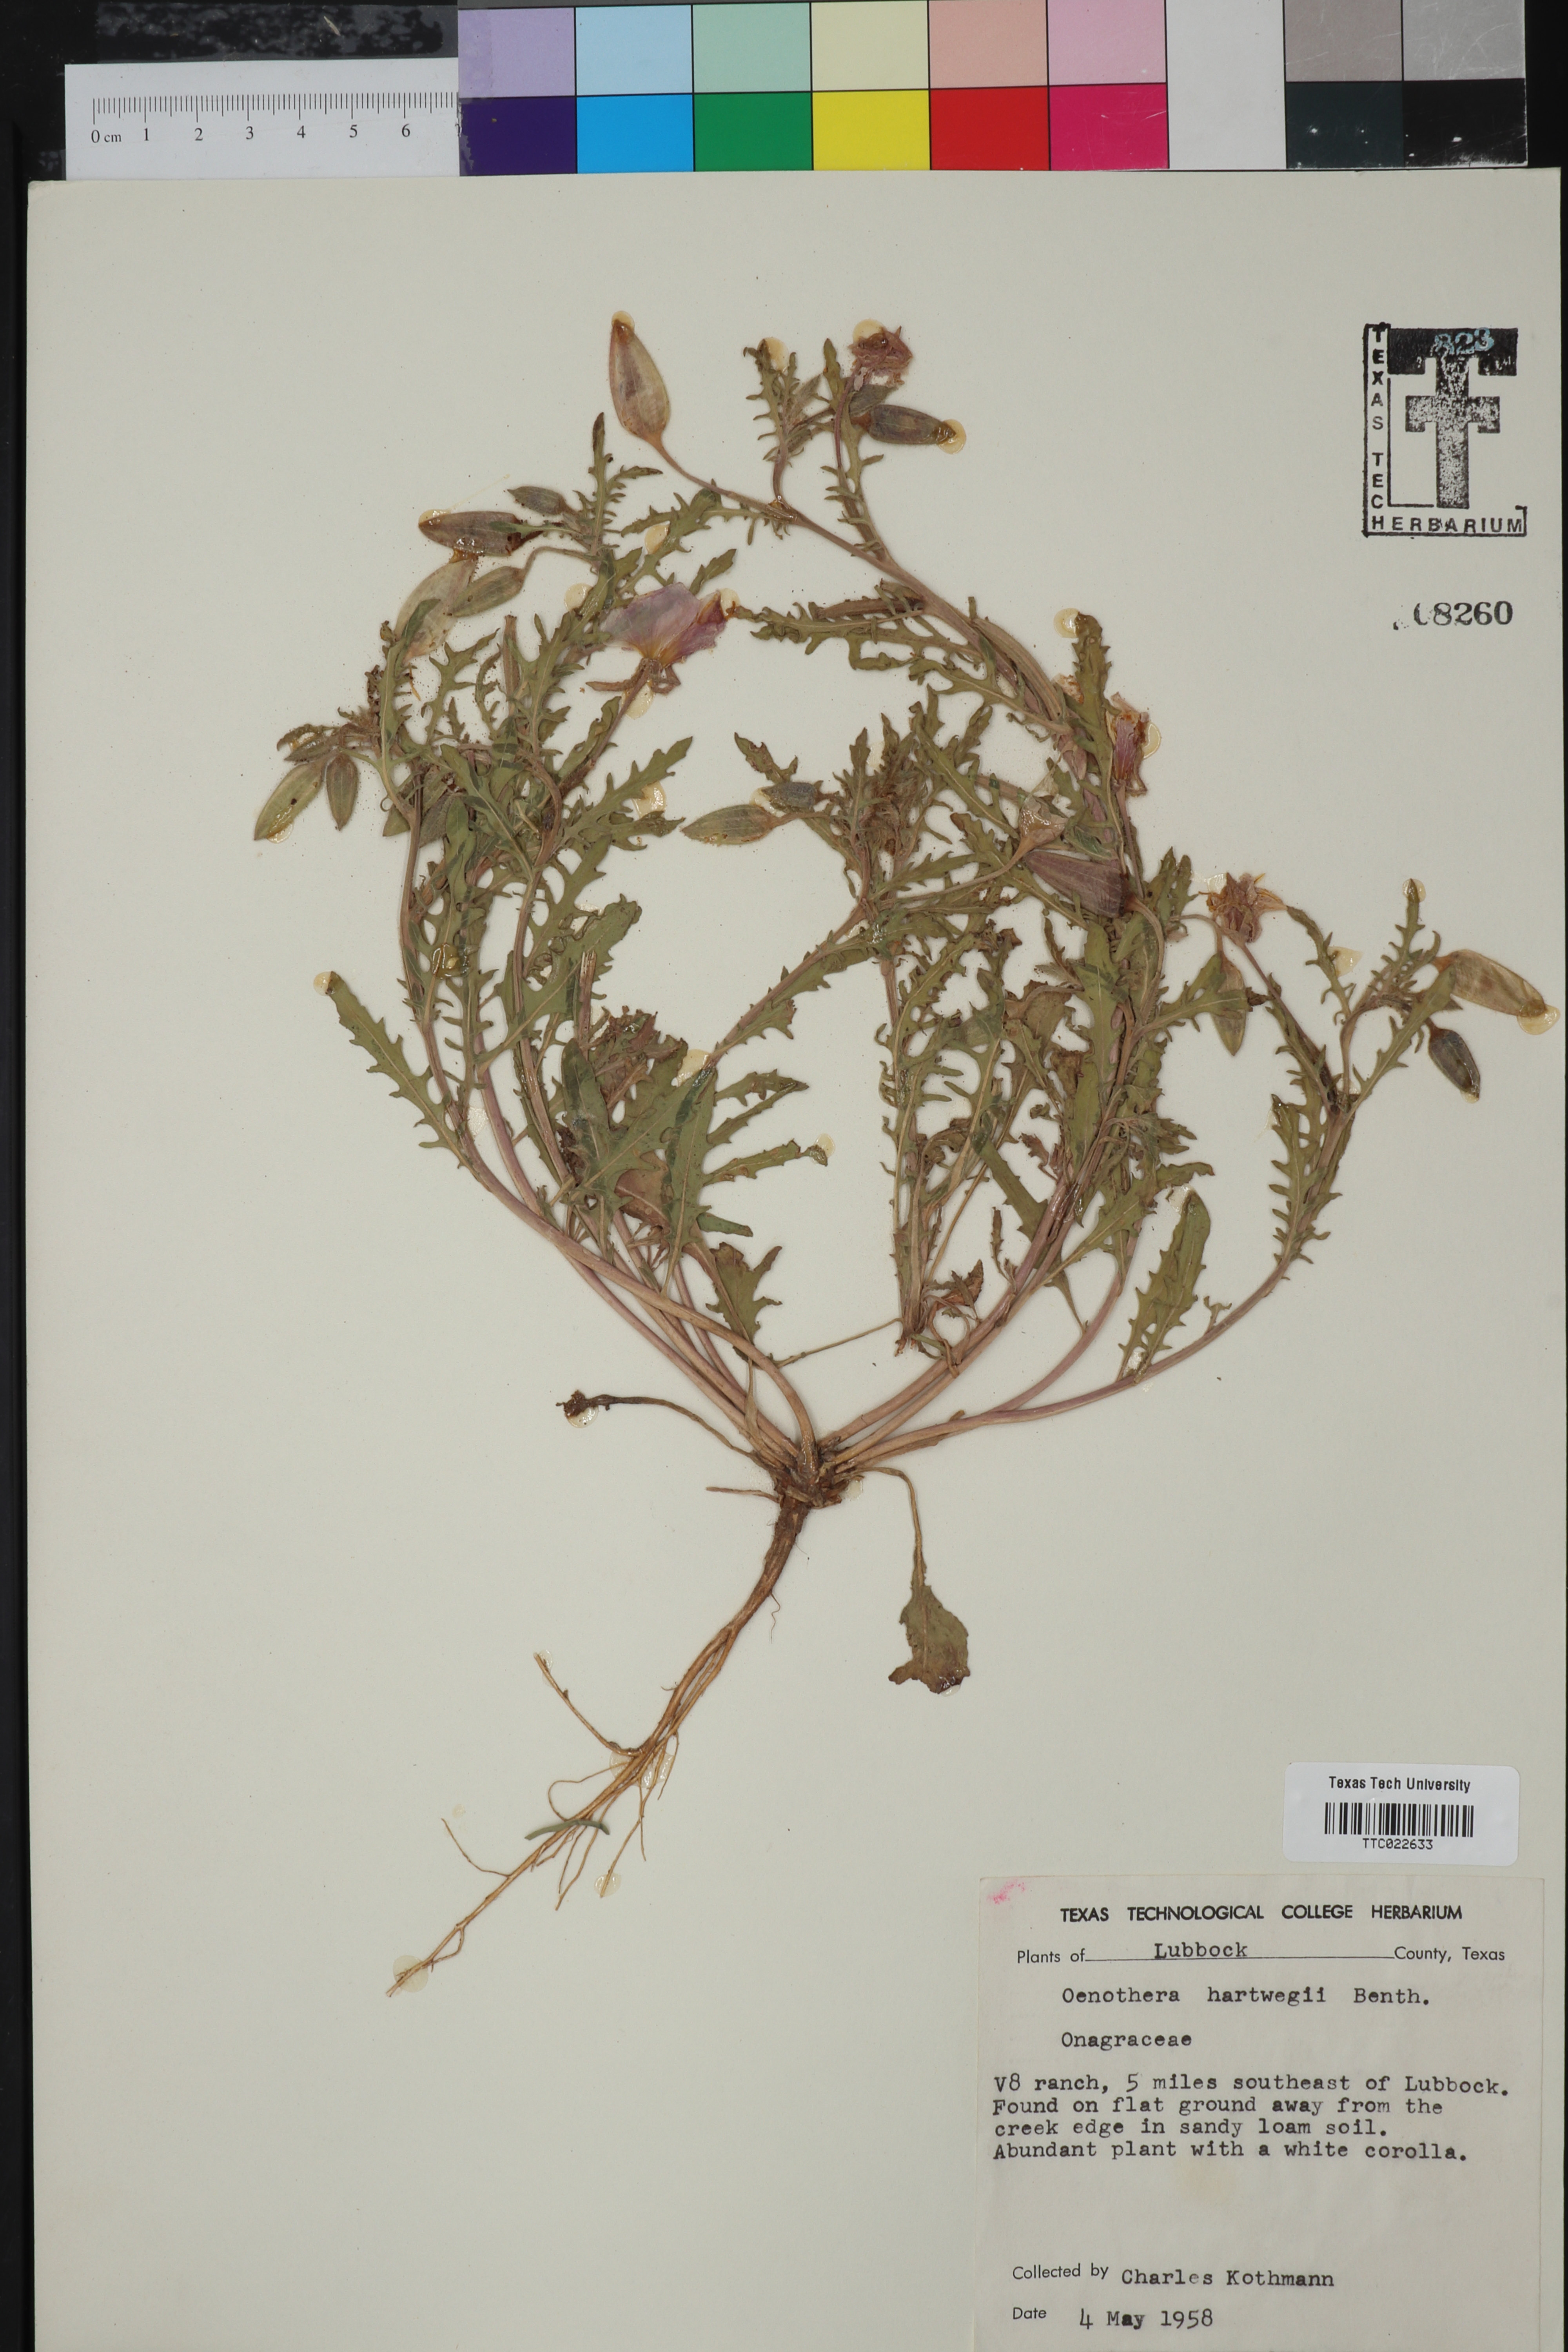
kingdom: Plantae
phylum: Tracheophyta
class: Magnoliopsida
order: Myrtales
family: Onagraceae
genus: Oenothera
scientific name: Oenothera hartwegii
